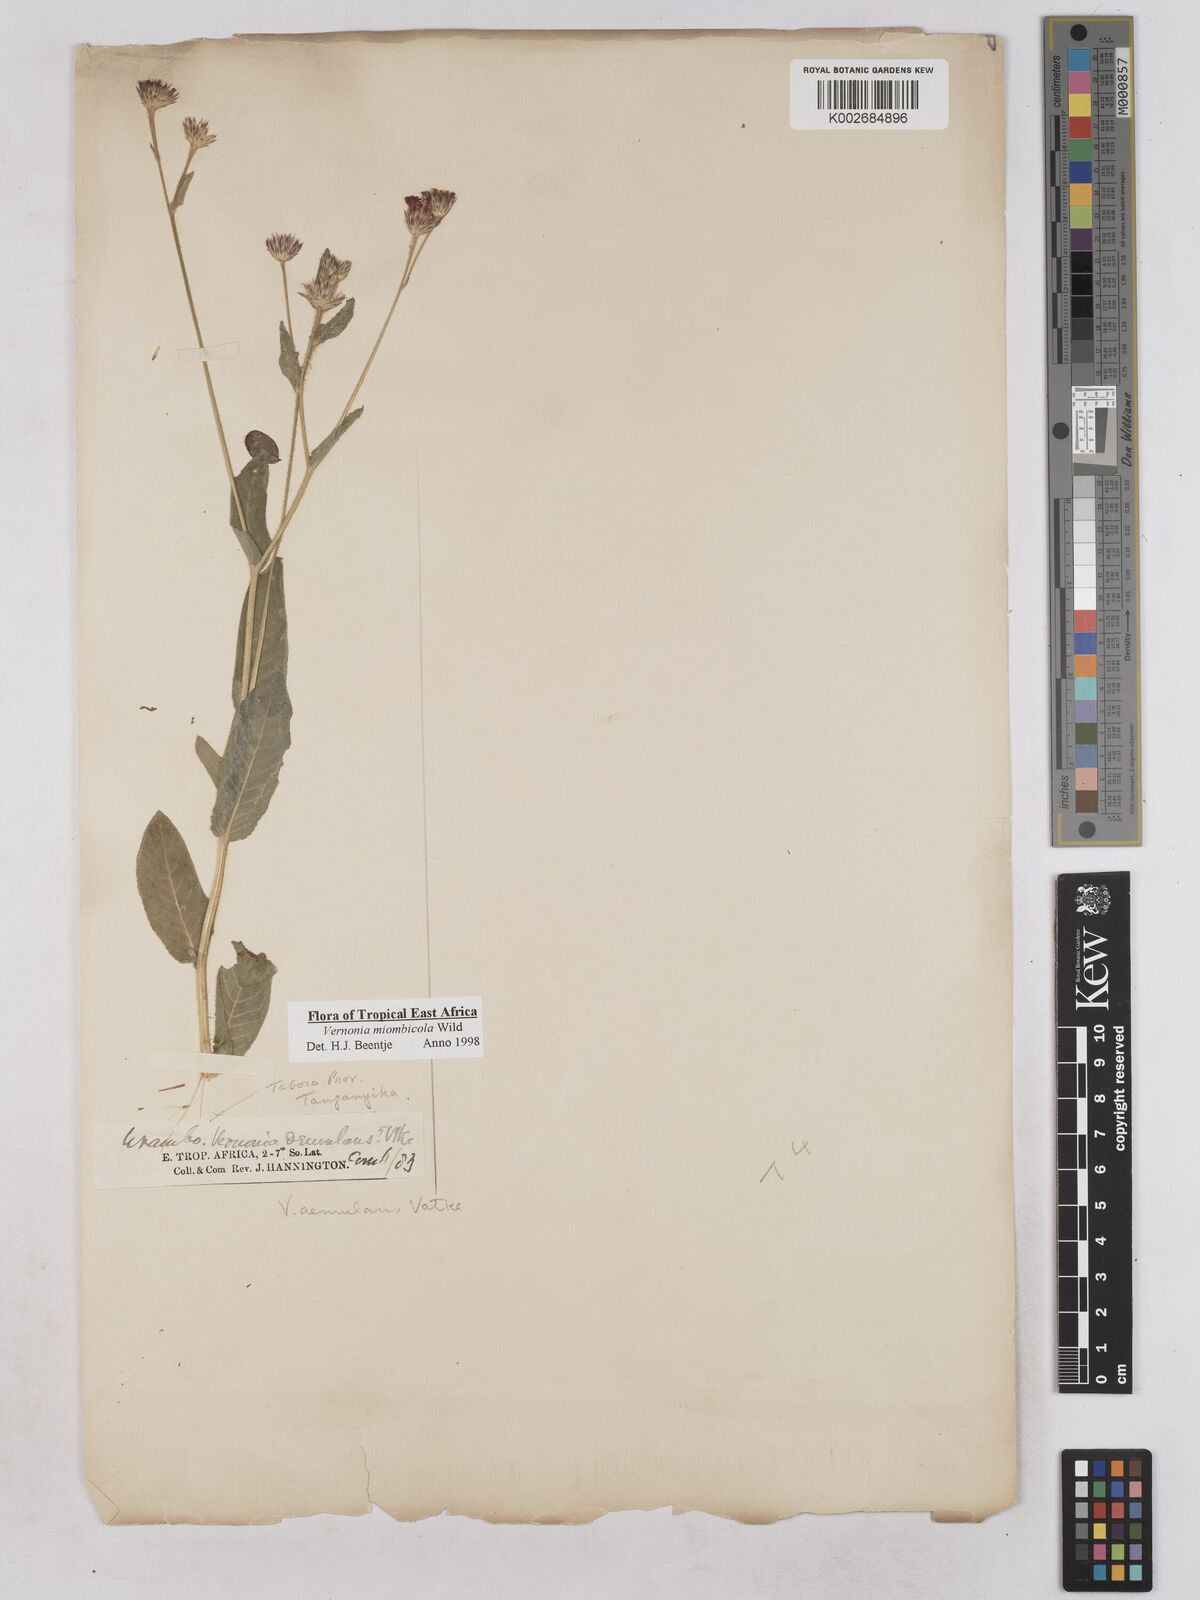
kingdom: Plantae
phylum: Tracheophyta
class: Magnoliopsida
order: Asterales
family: Asteraceae
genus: Vernonia
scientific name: Vernonia miombicola
